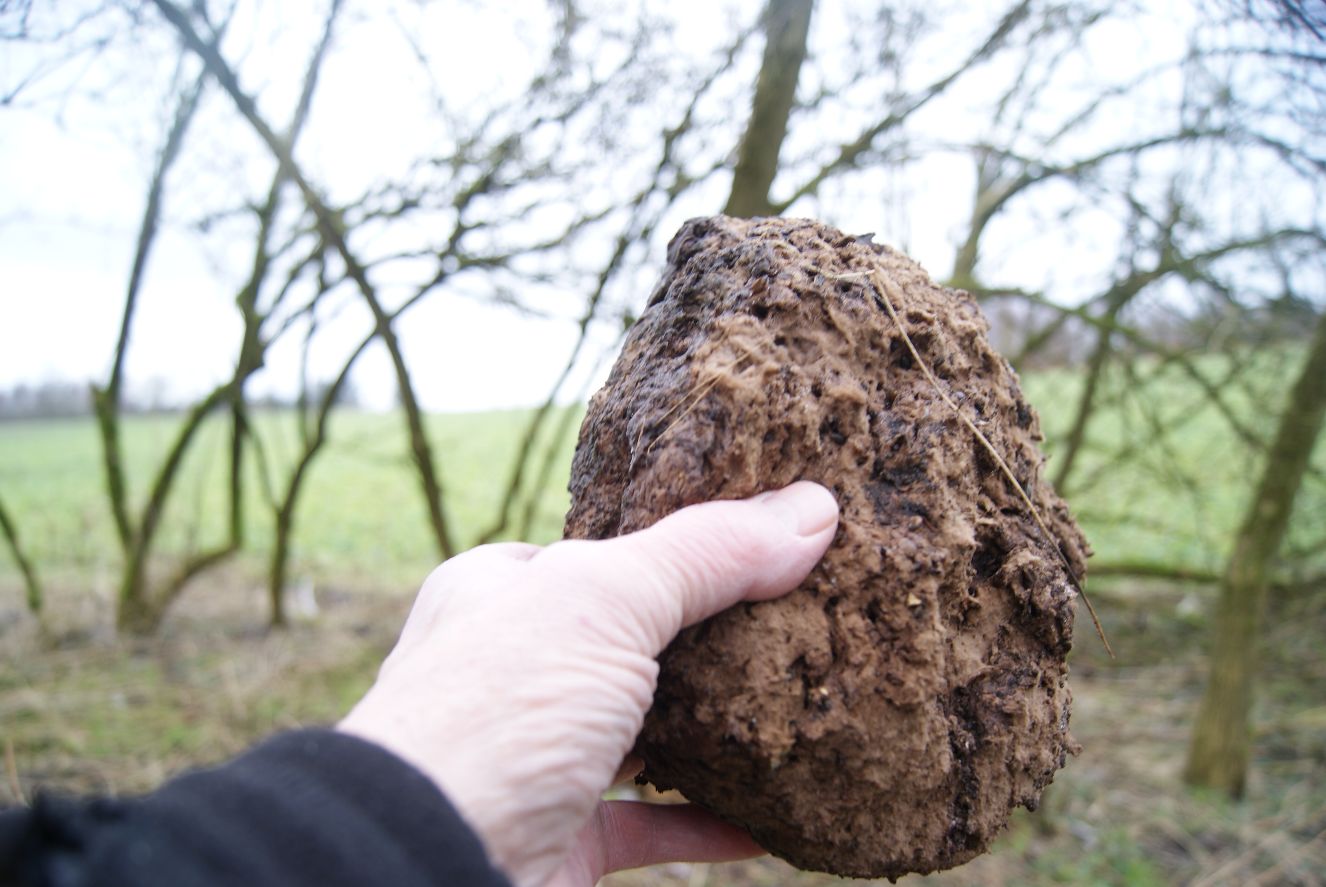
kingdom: Fungi
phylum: Basidiomycota
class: Agaricomycetes
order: Agaricales
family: Lycoperdaceae
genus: Calvatia
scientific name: Calvatia gigantea
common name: kæmpestøvbold
